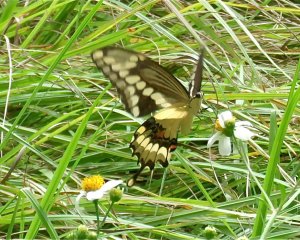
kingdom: Animalia
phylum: Arthropoda
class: Insecta
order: Lepidoptera
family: Papilionidae
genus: Papilio
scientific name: Papilio cresphontes
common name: Eastern Giant Swallowtail
